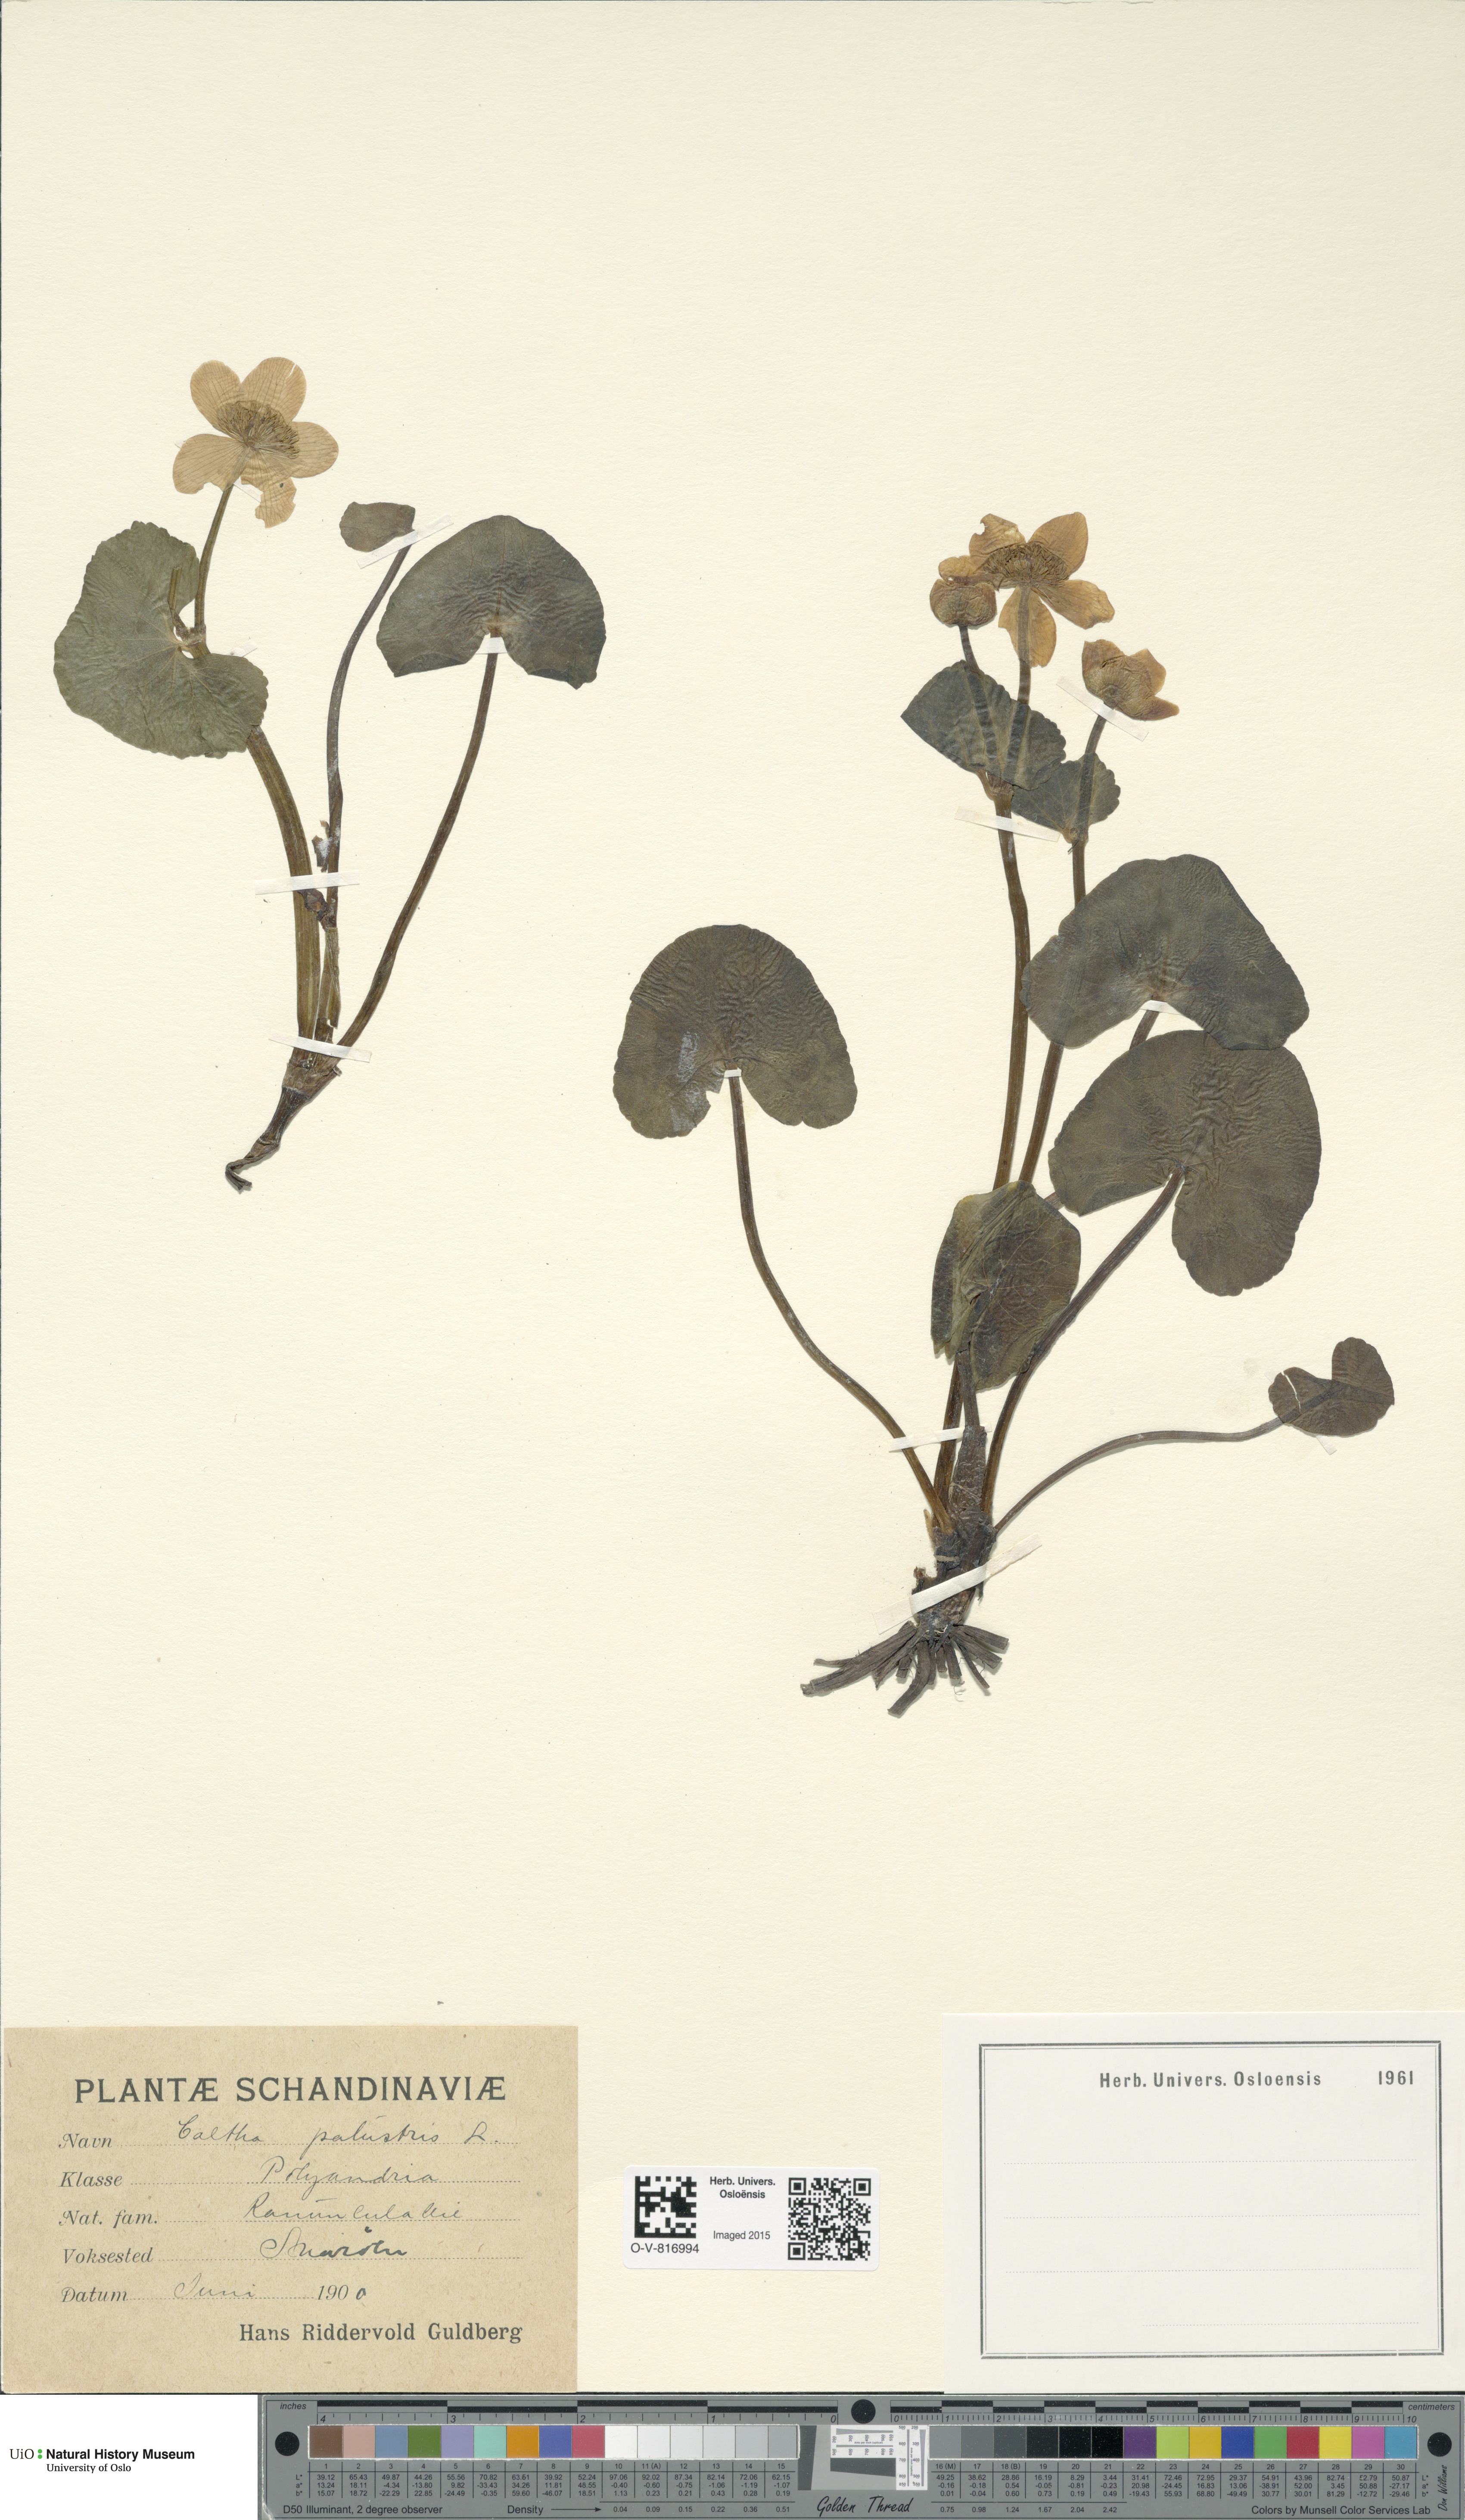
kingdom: Plantae
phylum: Tracheophyta
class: Magnoliopsida
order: Ranunculales
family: Ranunculaceae
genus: Caltha
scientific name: Caltha palustris
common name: Marsh marigold
